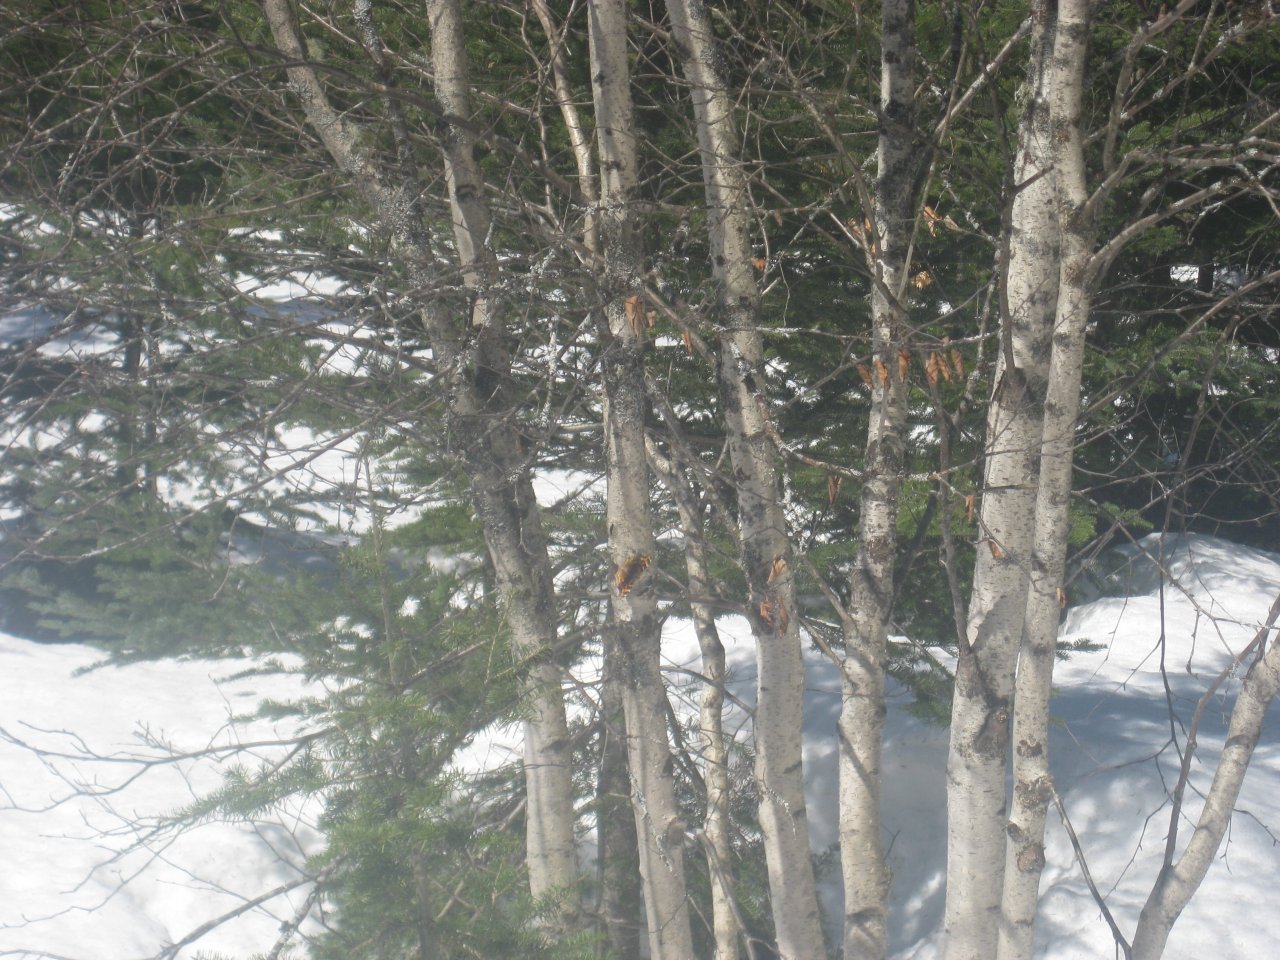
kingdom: Animalia
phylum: Arthropoda
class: Insecta
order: Lepidoptera
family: Nymphalidae
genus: Polygonia
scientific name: Polygonia
